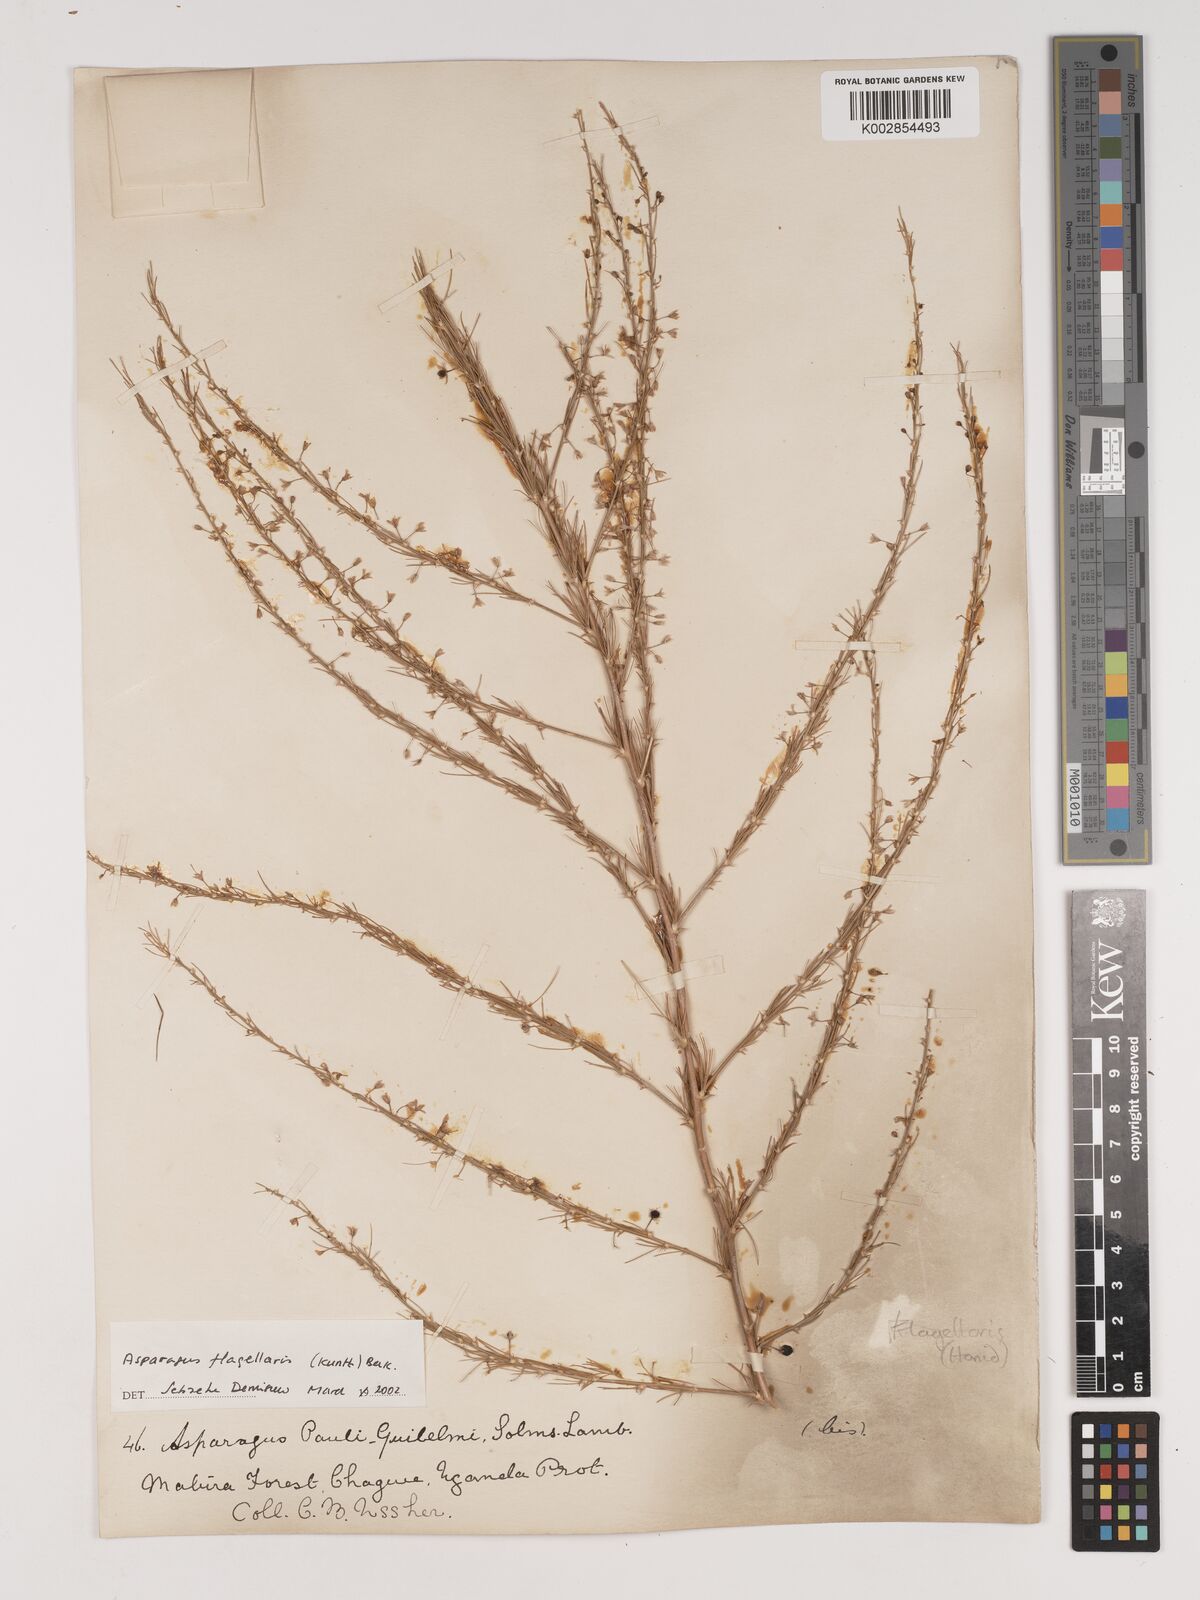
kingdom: Plantae
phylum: Tracheophyta
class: Liliopsida
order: Asparagales
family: Asparagaceae
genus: Asparagus
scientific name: Asparagus flagellaris
